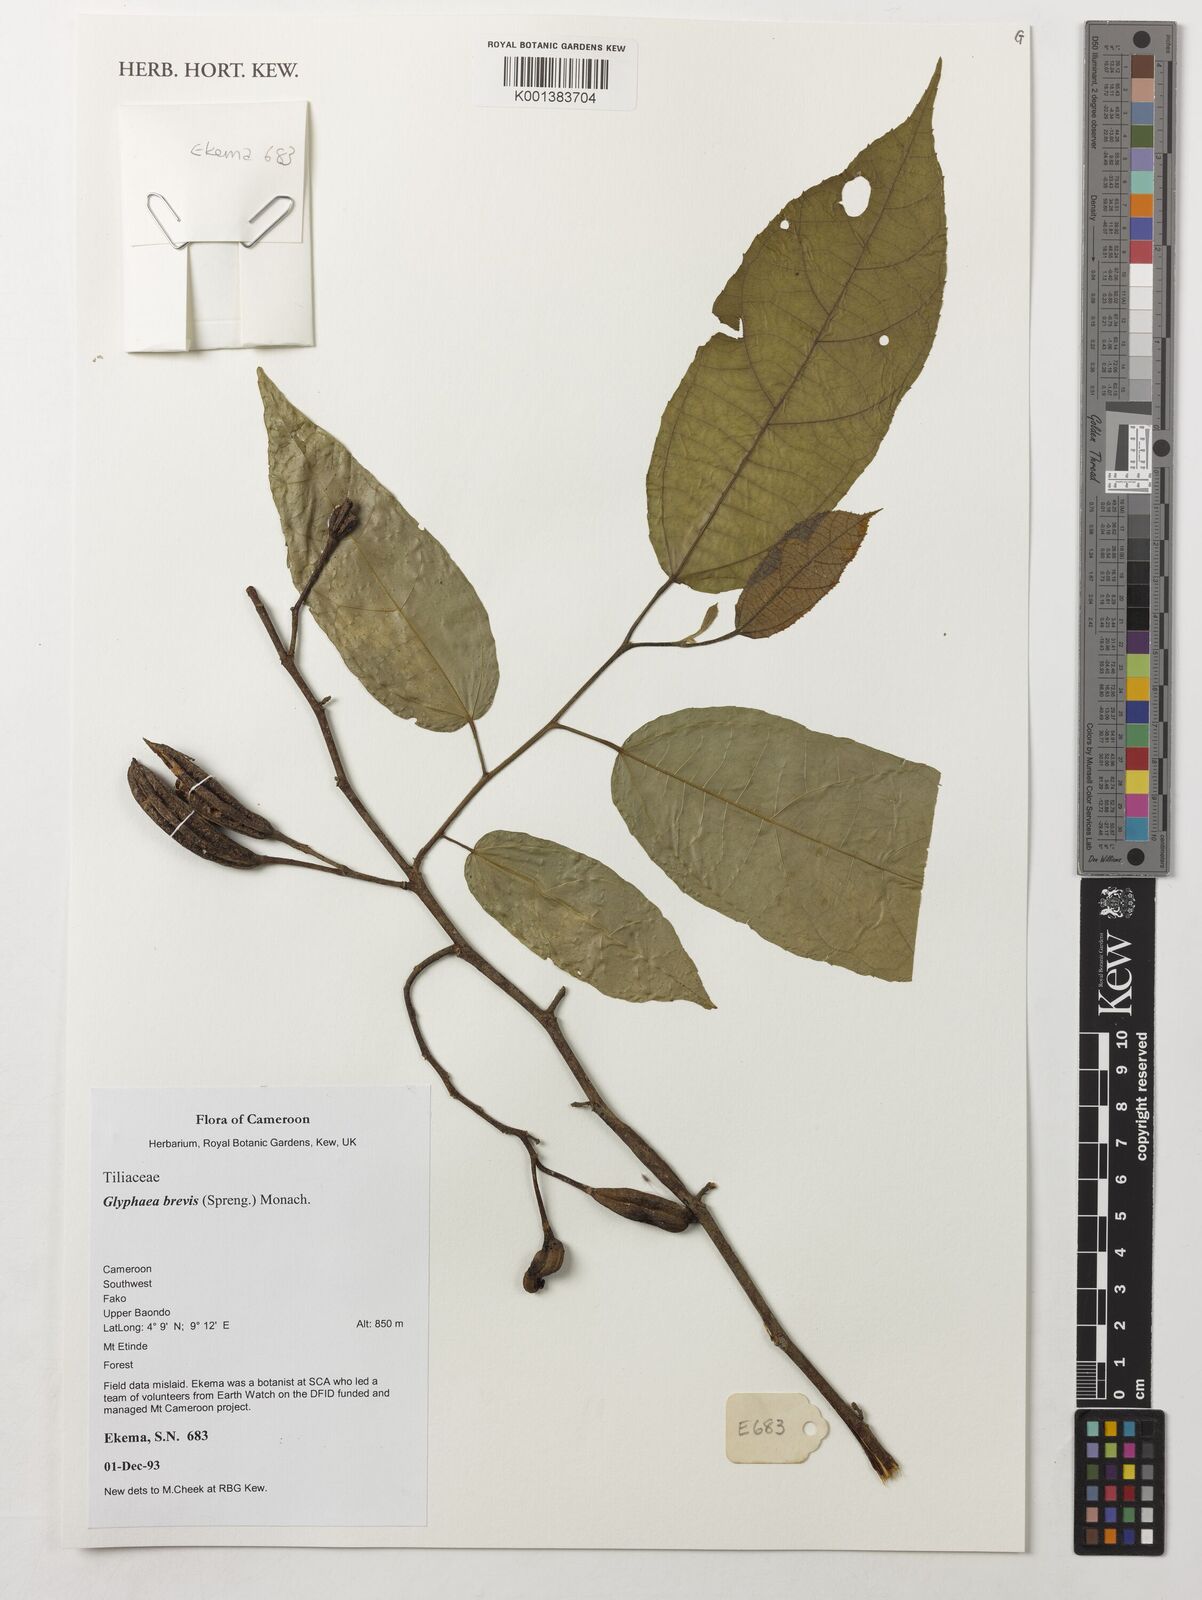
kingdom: Plantae
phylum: Tracheophyta
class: Magnoliopsida
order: Malvales
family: Malvaceae
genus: Glyphaea
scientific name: Glyphaea brevis
